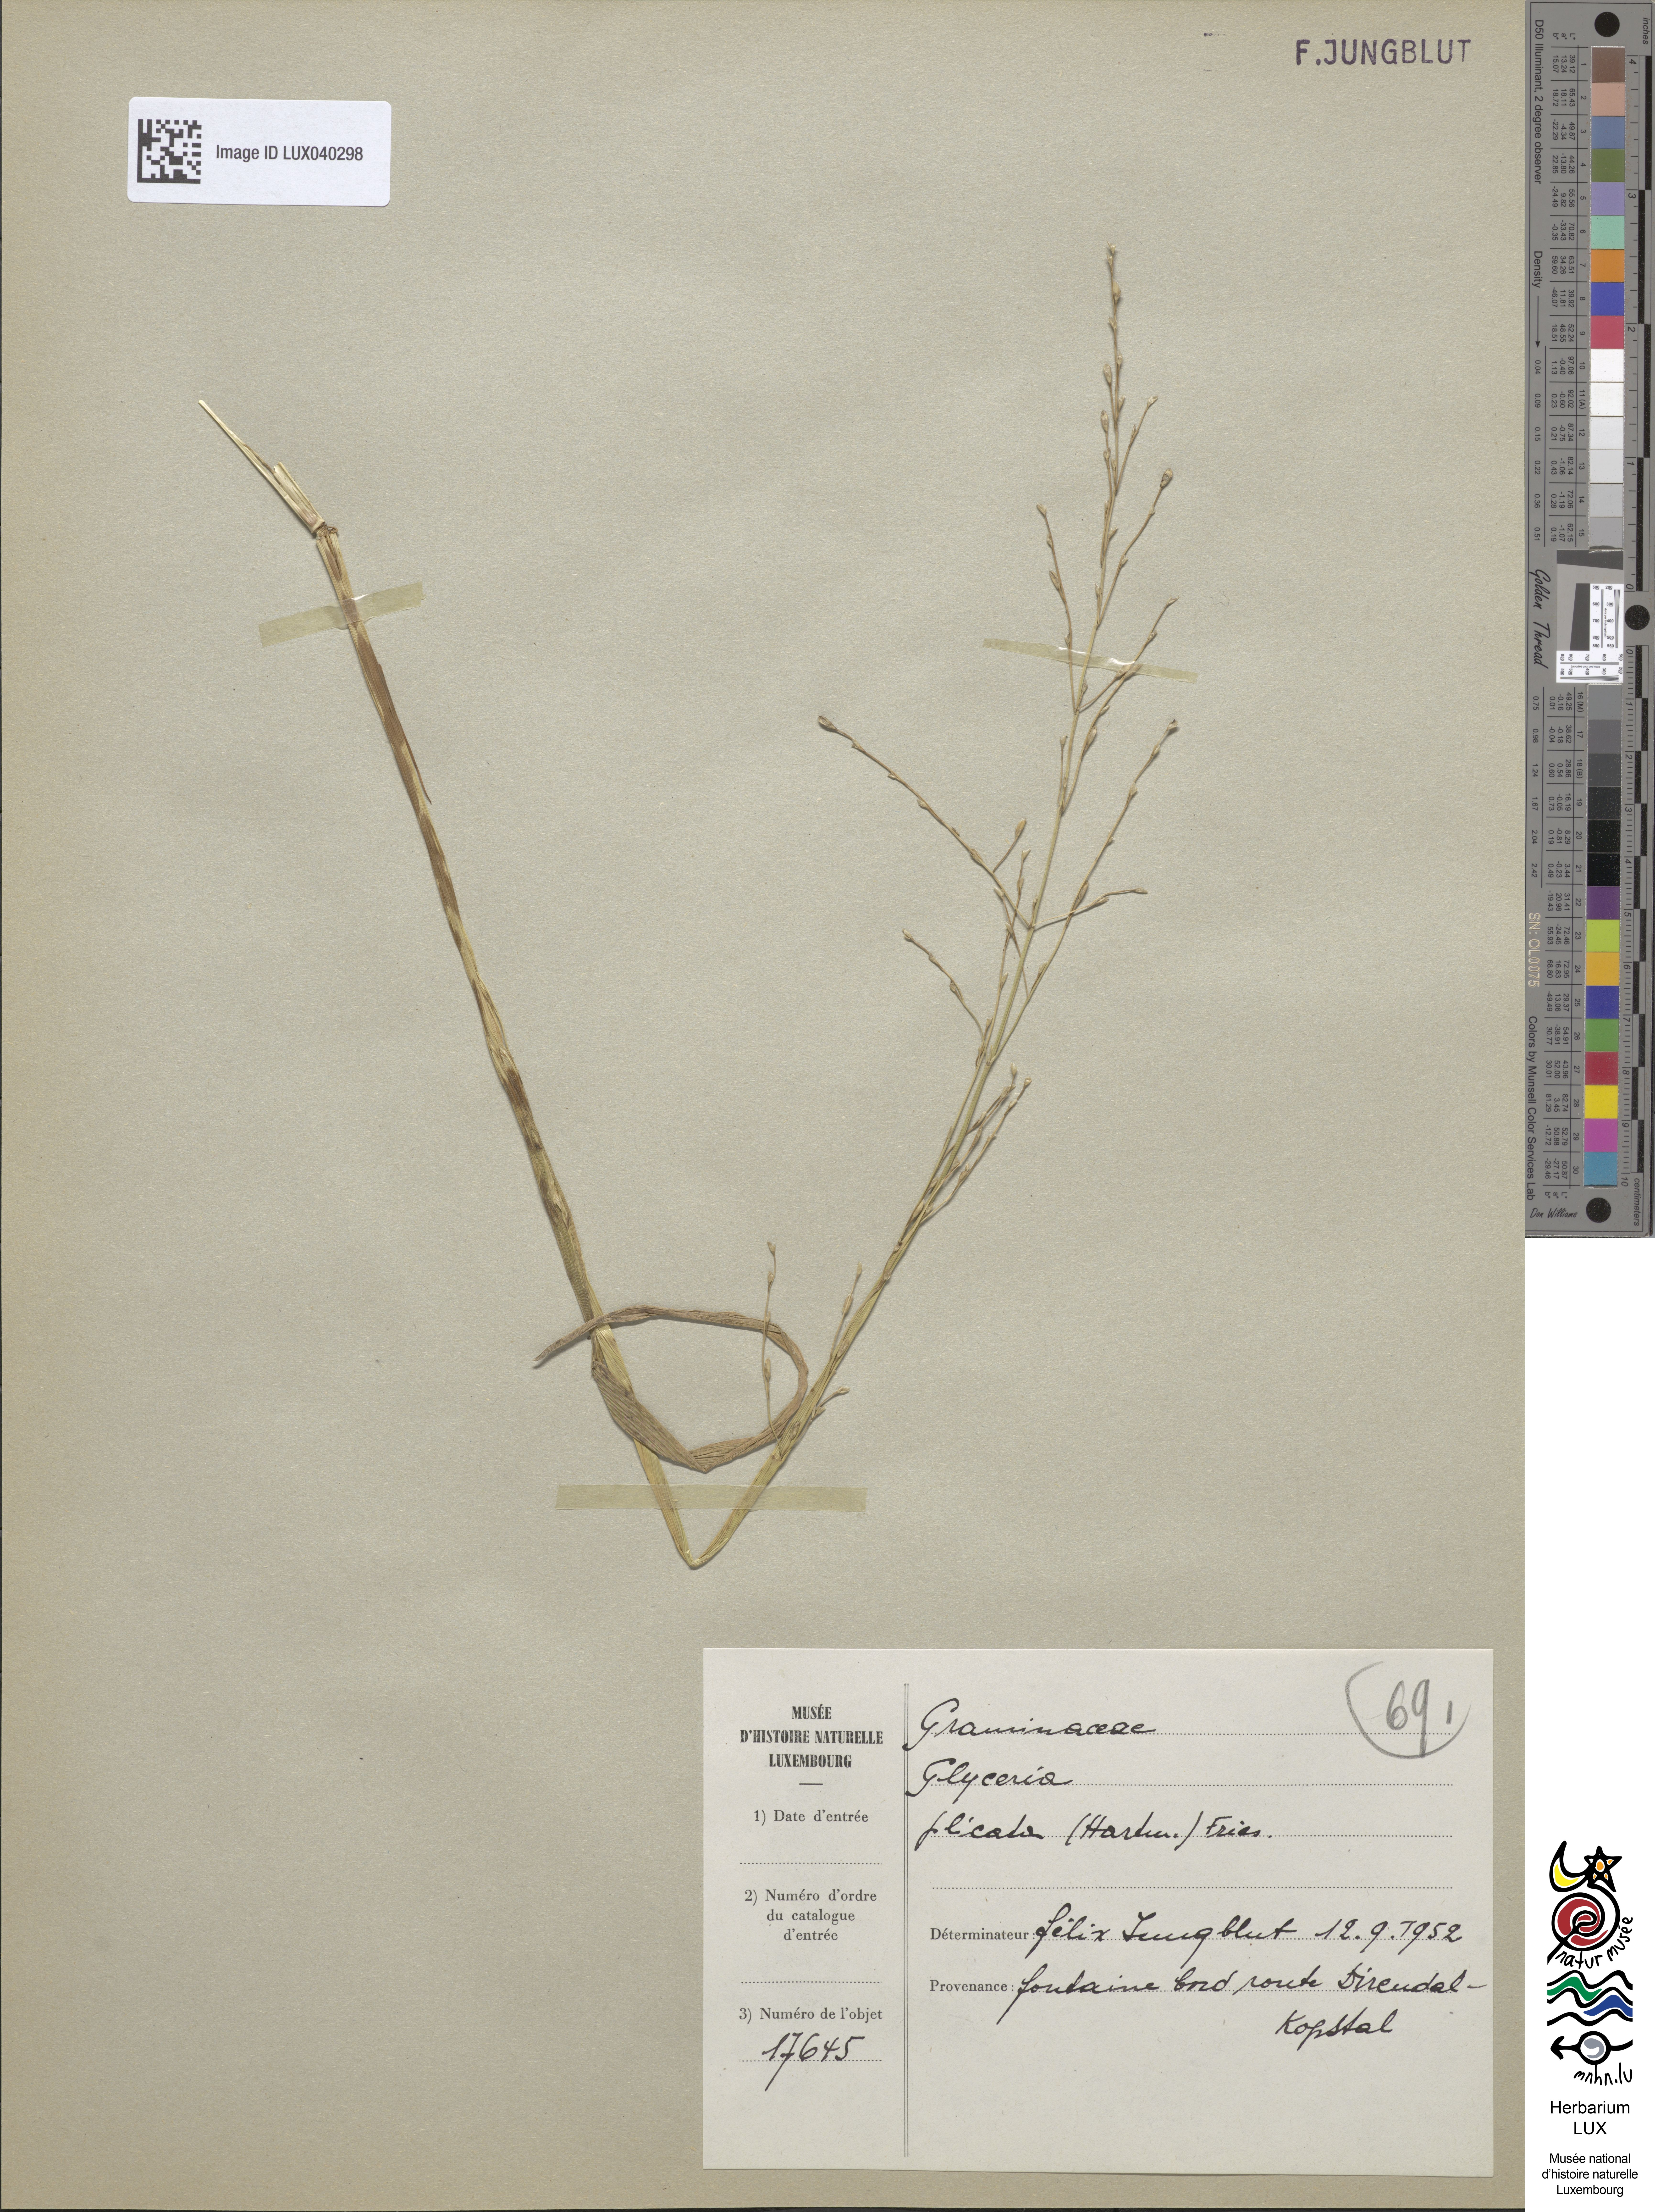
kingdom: Plantae
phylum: Tracheophyta
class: Liliopsida
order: Poales
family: Poaceae
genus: Glyceria
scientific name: Glyceria notata
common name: Plicate sweet-grass
